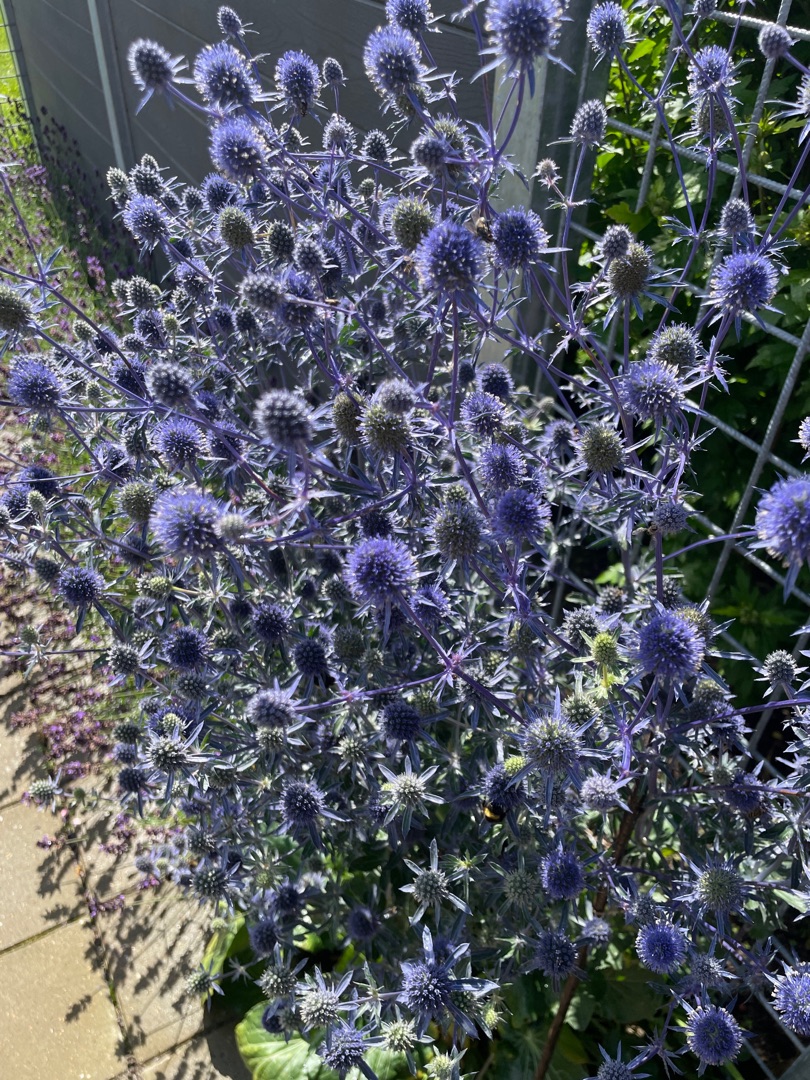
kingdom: Plantae
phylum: Tracheophyta
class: Magnoliopsida
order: Apiales
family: Apiaceae
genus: Eryngium
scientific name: Eryngium planum
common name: Russisk mandstro
